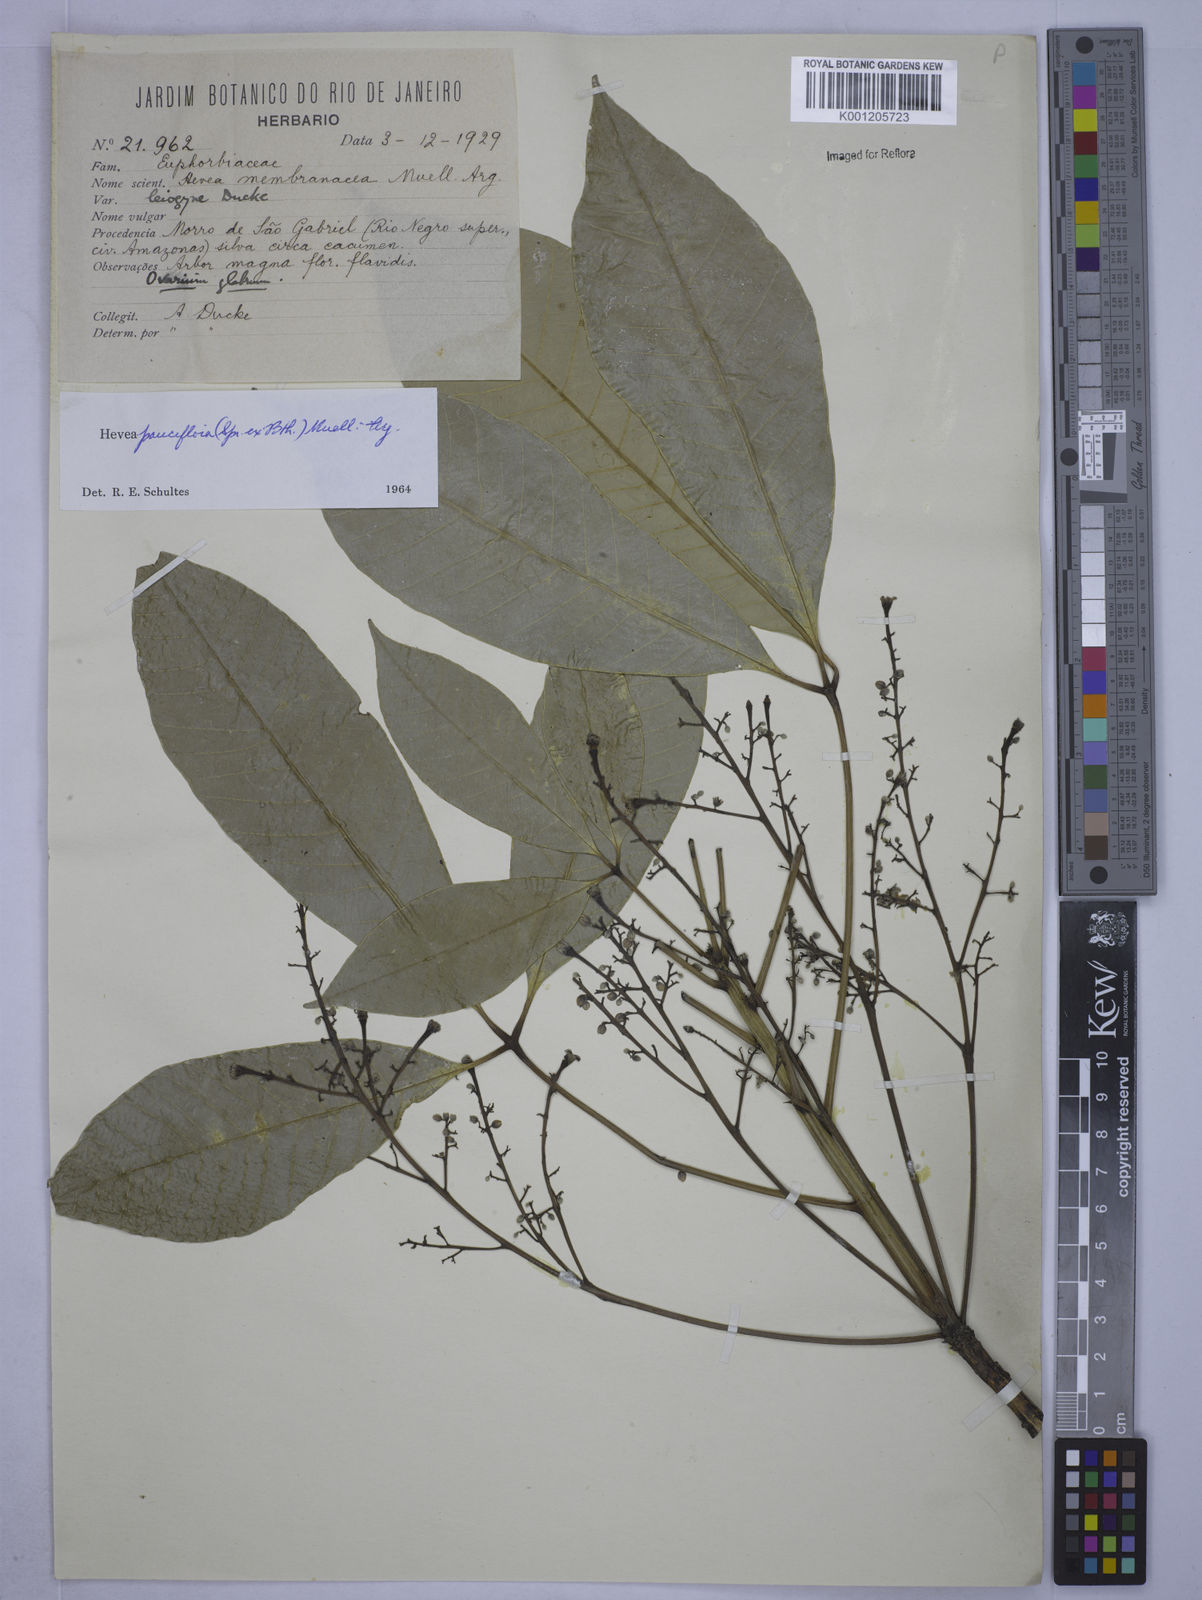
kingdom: Plantae
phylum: Tracheophyta
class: Magnoliopsida
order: Malpighiales
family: Euphorbiaceae
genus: Hevea
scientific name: Hevea
